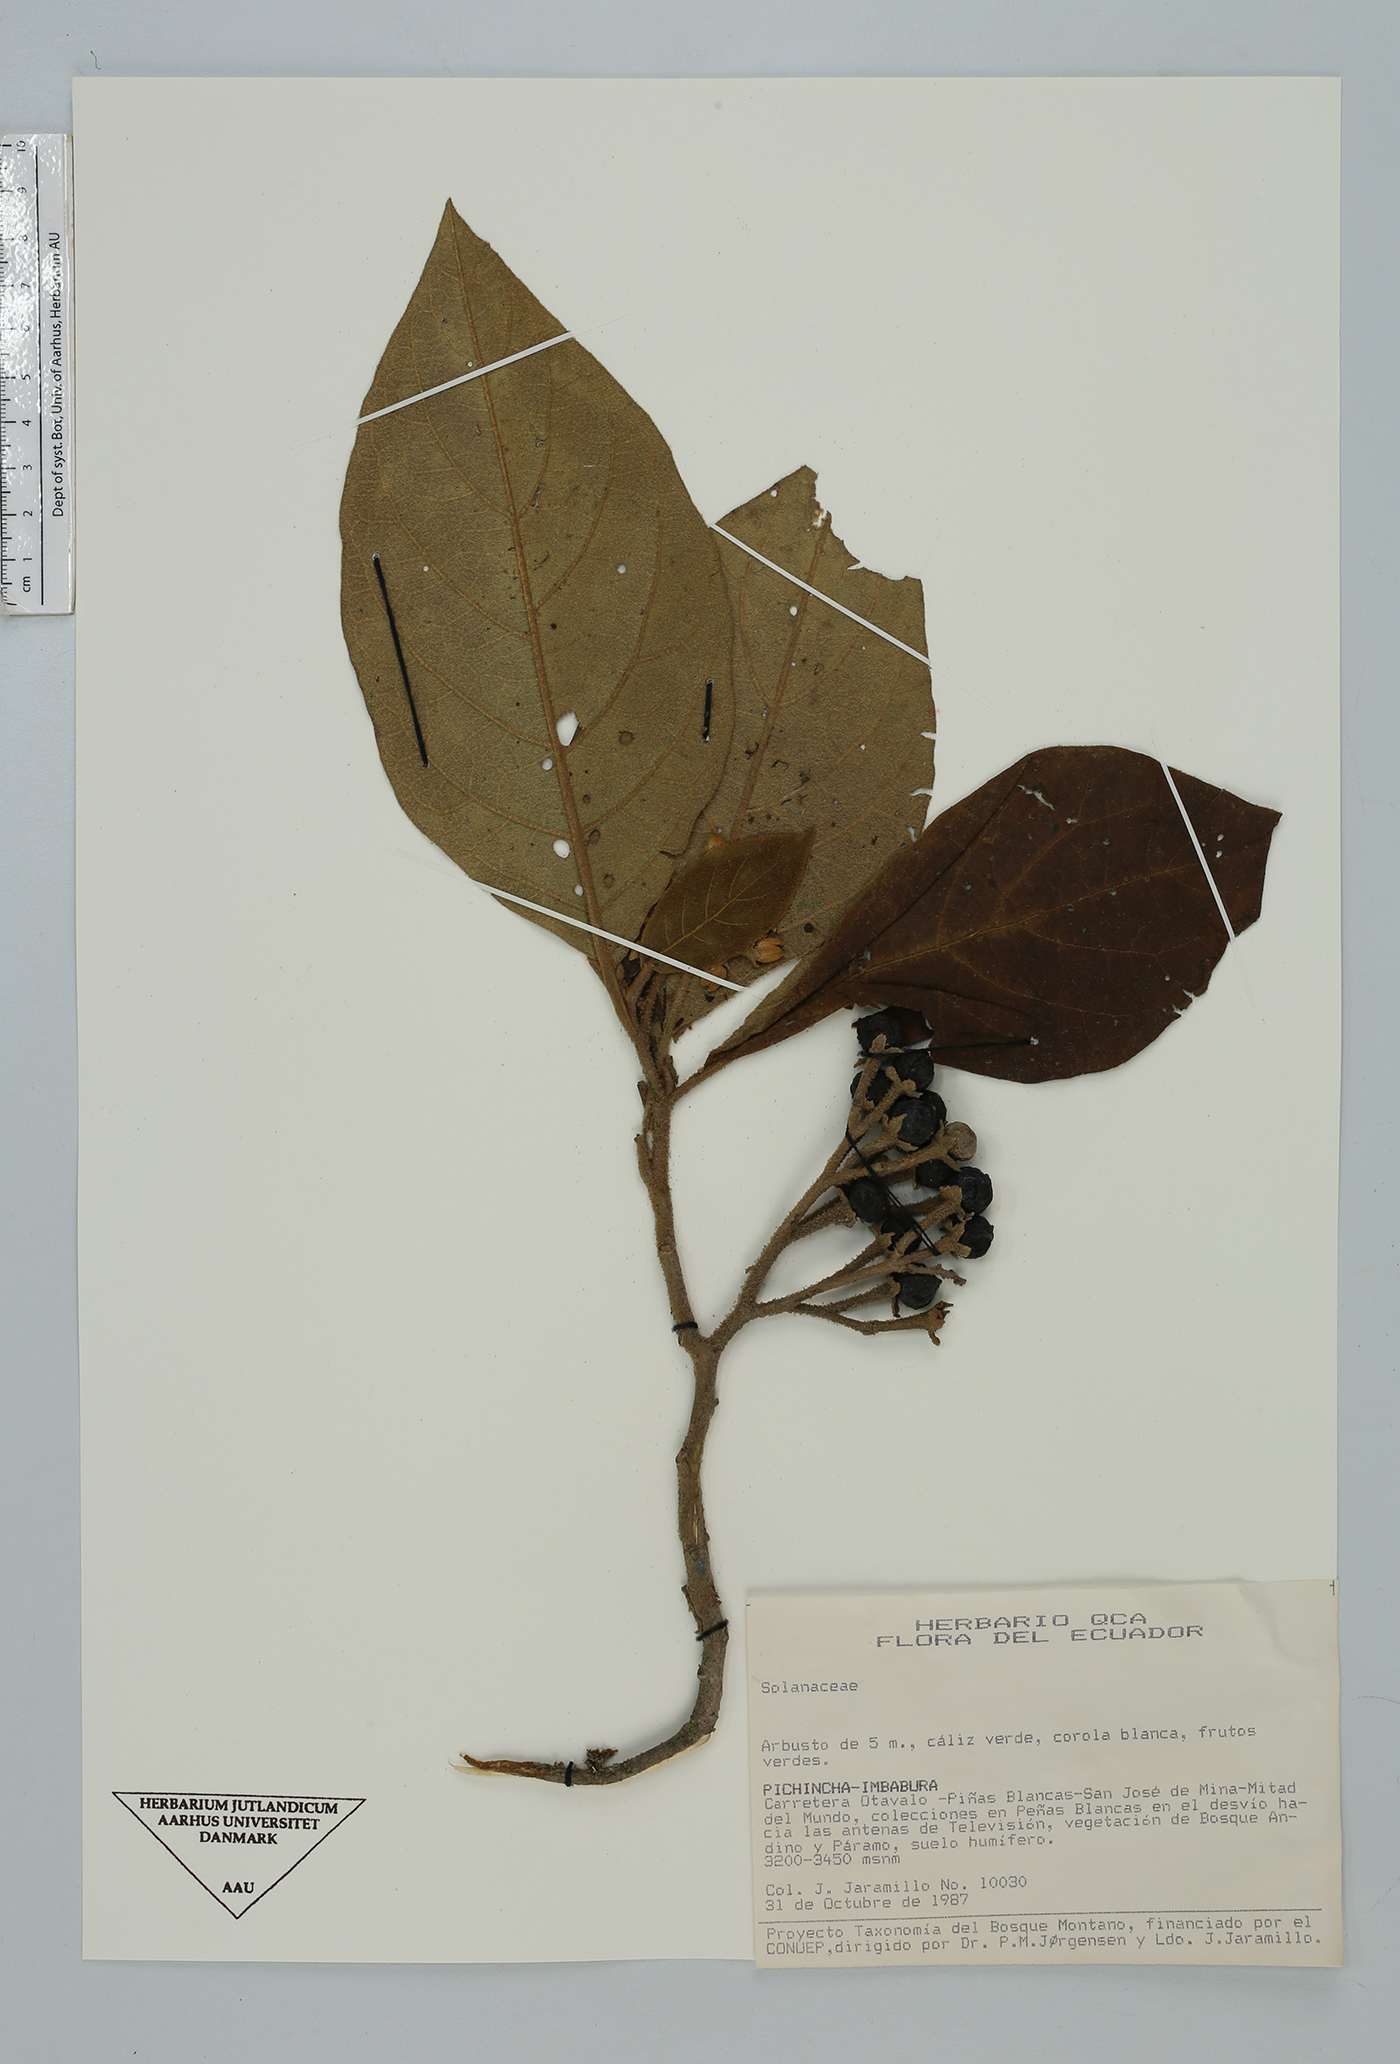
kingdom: Plantae
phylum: Tracheophyta
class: Magnoliopsida
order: Solanales
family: Solanaceae
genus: Solanum
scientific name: Solanum
